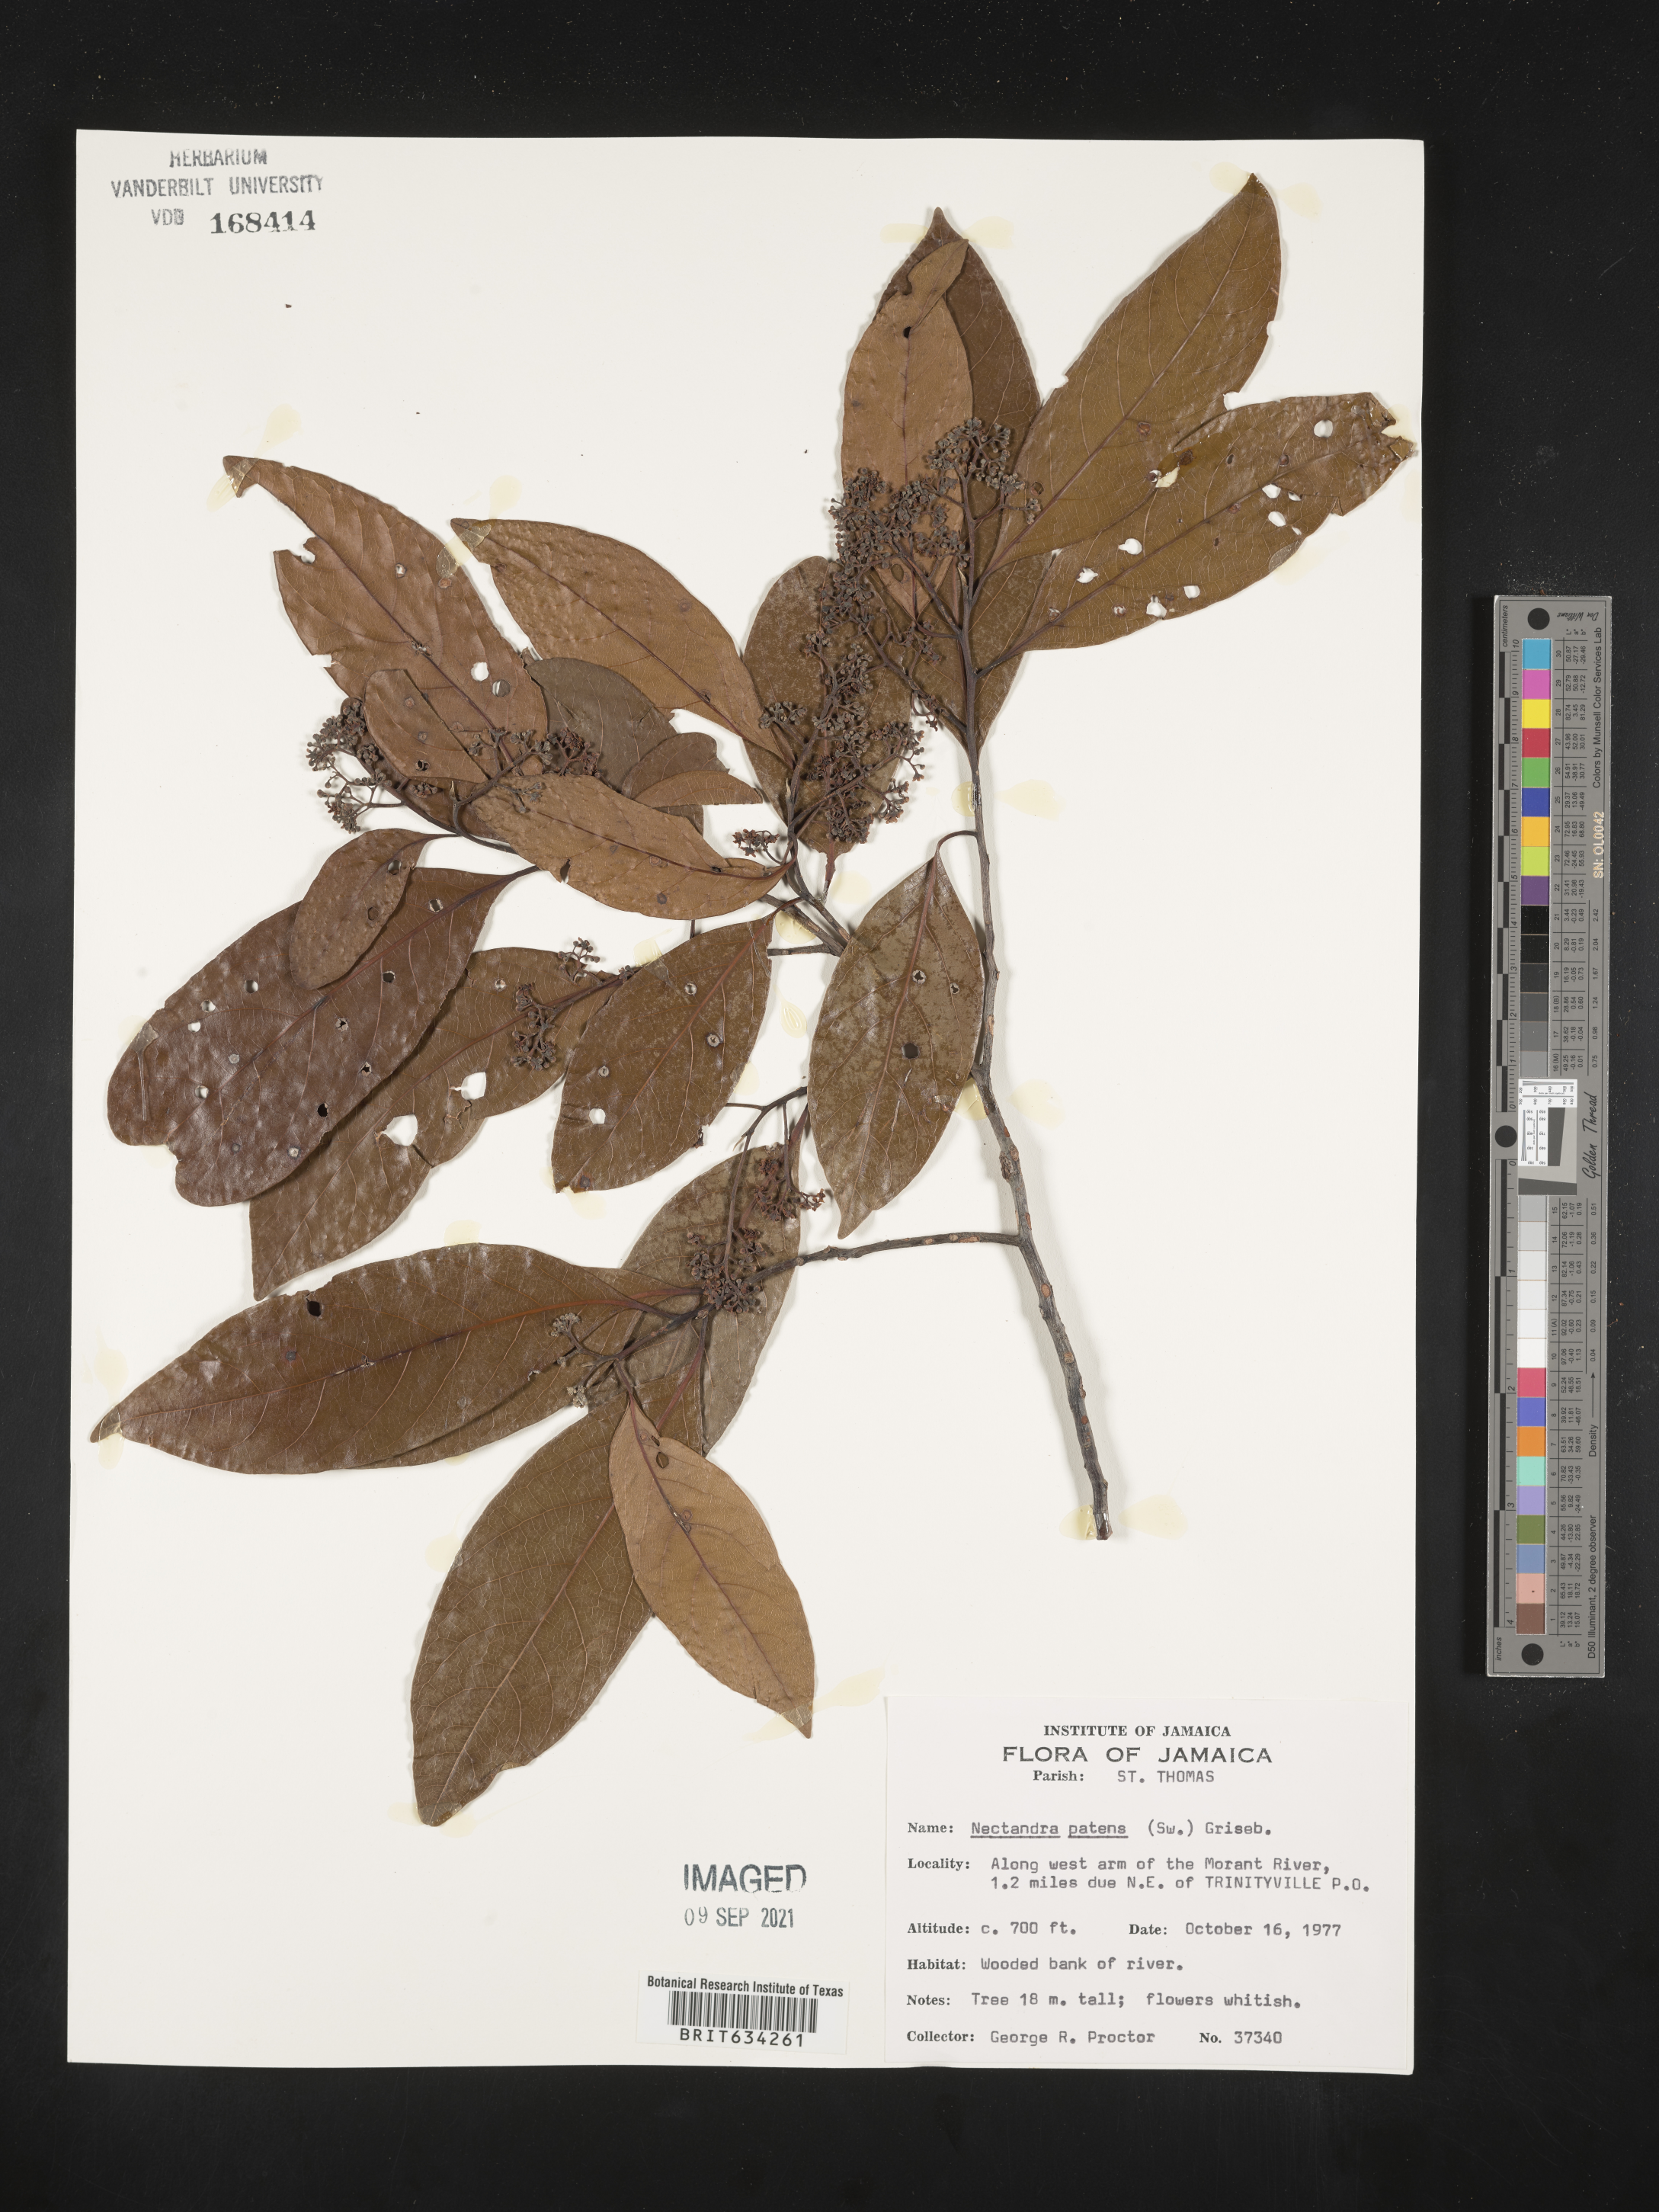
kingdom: Plantae
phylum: Tracheophyta
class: Magnoliopsida
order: Laurales
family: Lauraceae
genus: Nectandra
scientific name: Nectandra
